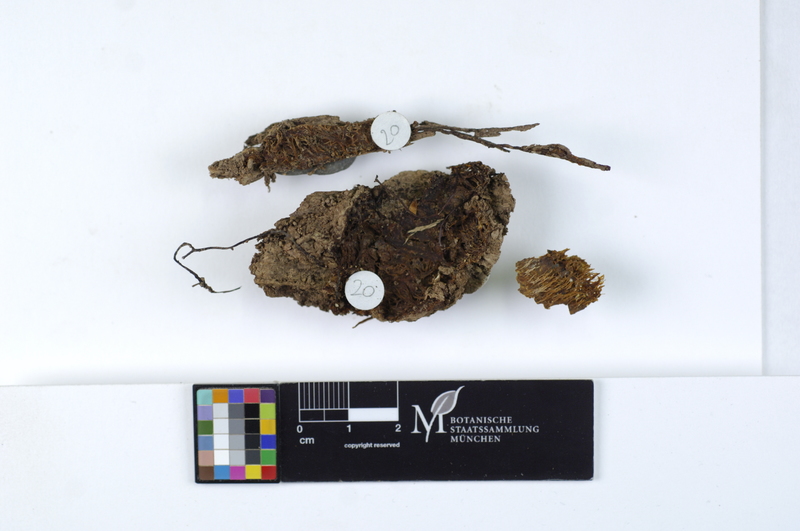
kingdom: Fungi
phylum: Basidiomycota
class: Agaricomycetes
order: Russulales
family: Hericiaceae
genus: Dentipellis
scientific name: Dentipellis fragilis
